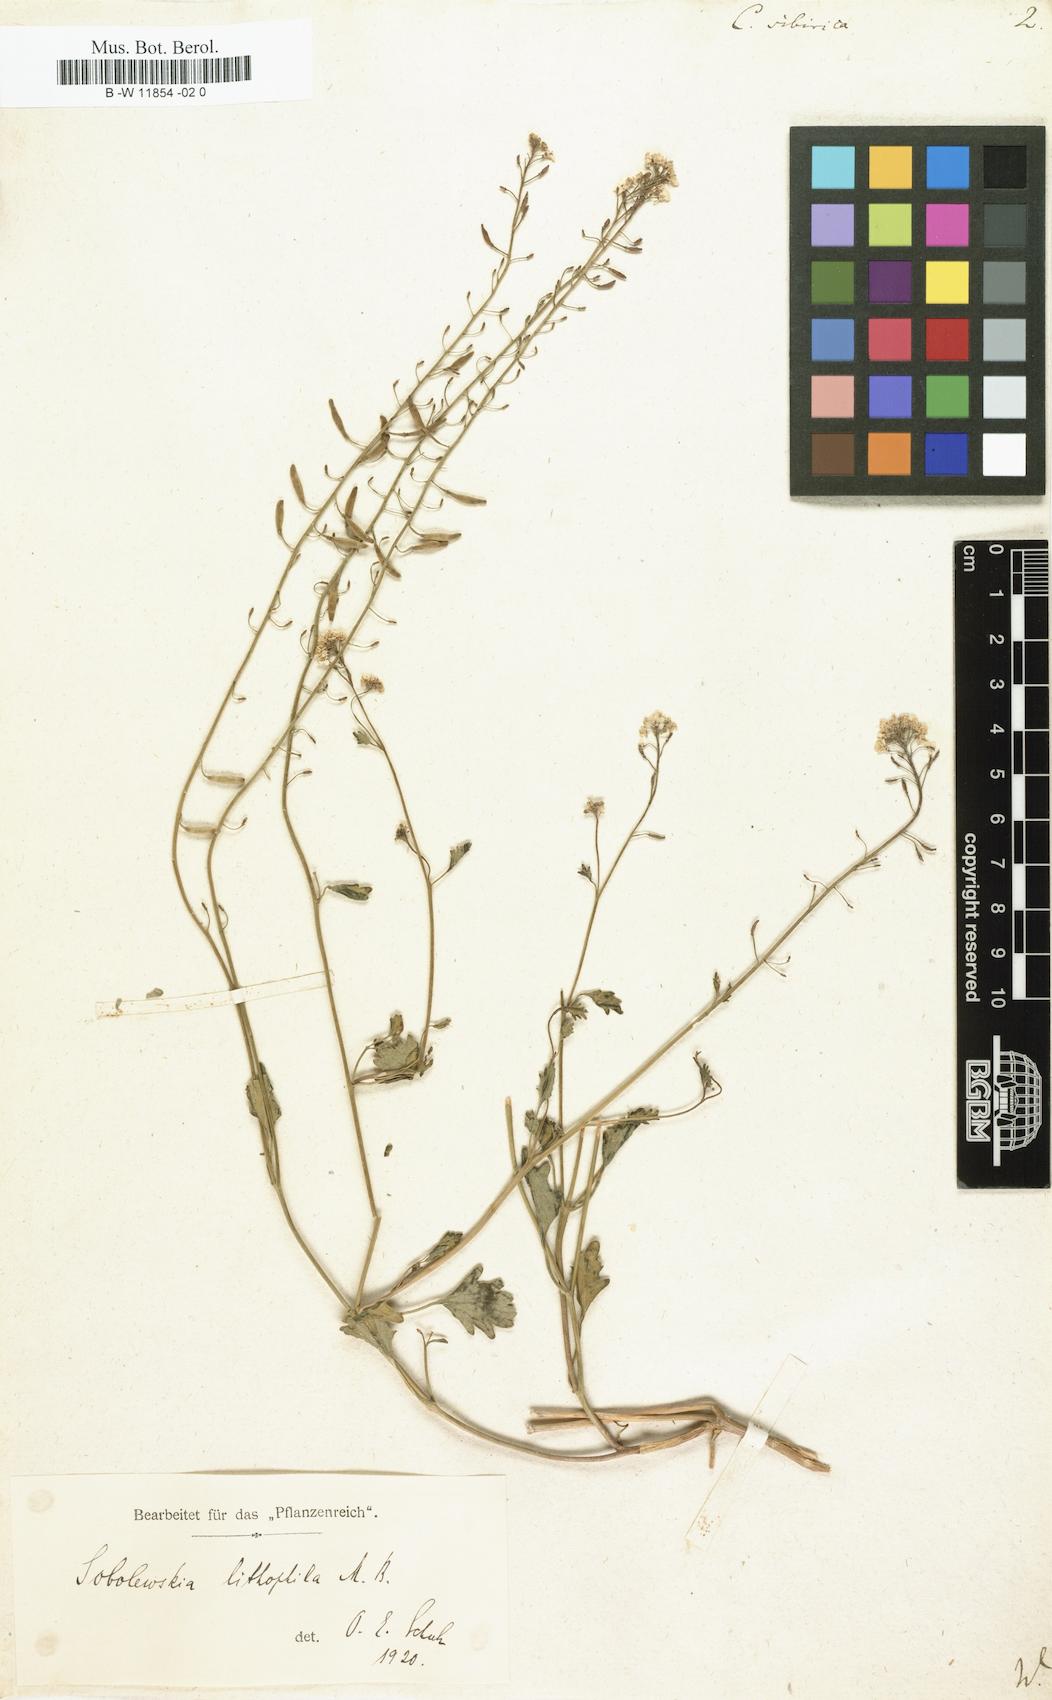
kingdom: Plantae
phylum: Tracheophyta
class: Magnoliopsida
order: Brassicales
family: Brassicaceae
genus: Sobolewskia
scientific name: Sobolewskia sibirica
